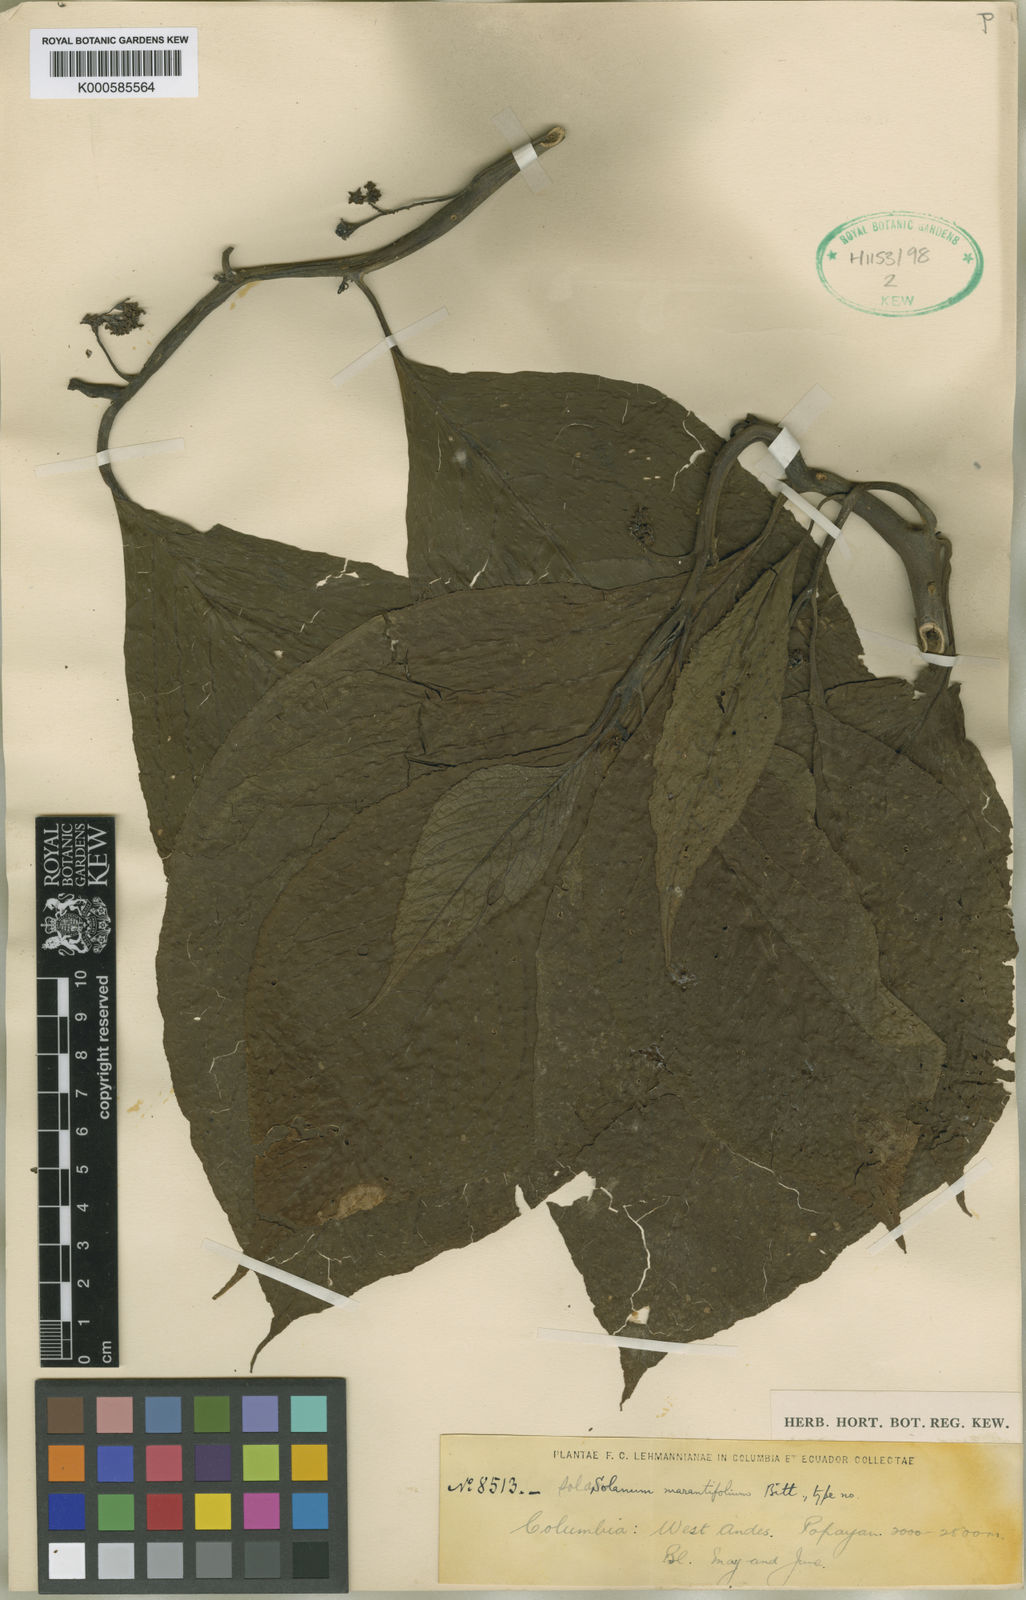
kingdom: Plantae
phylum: Tracheophyta
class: Magnoliopsida
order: Solanales
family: Solanaceae
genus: Solanum
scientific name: Solanum marantifolium
